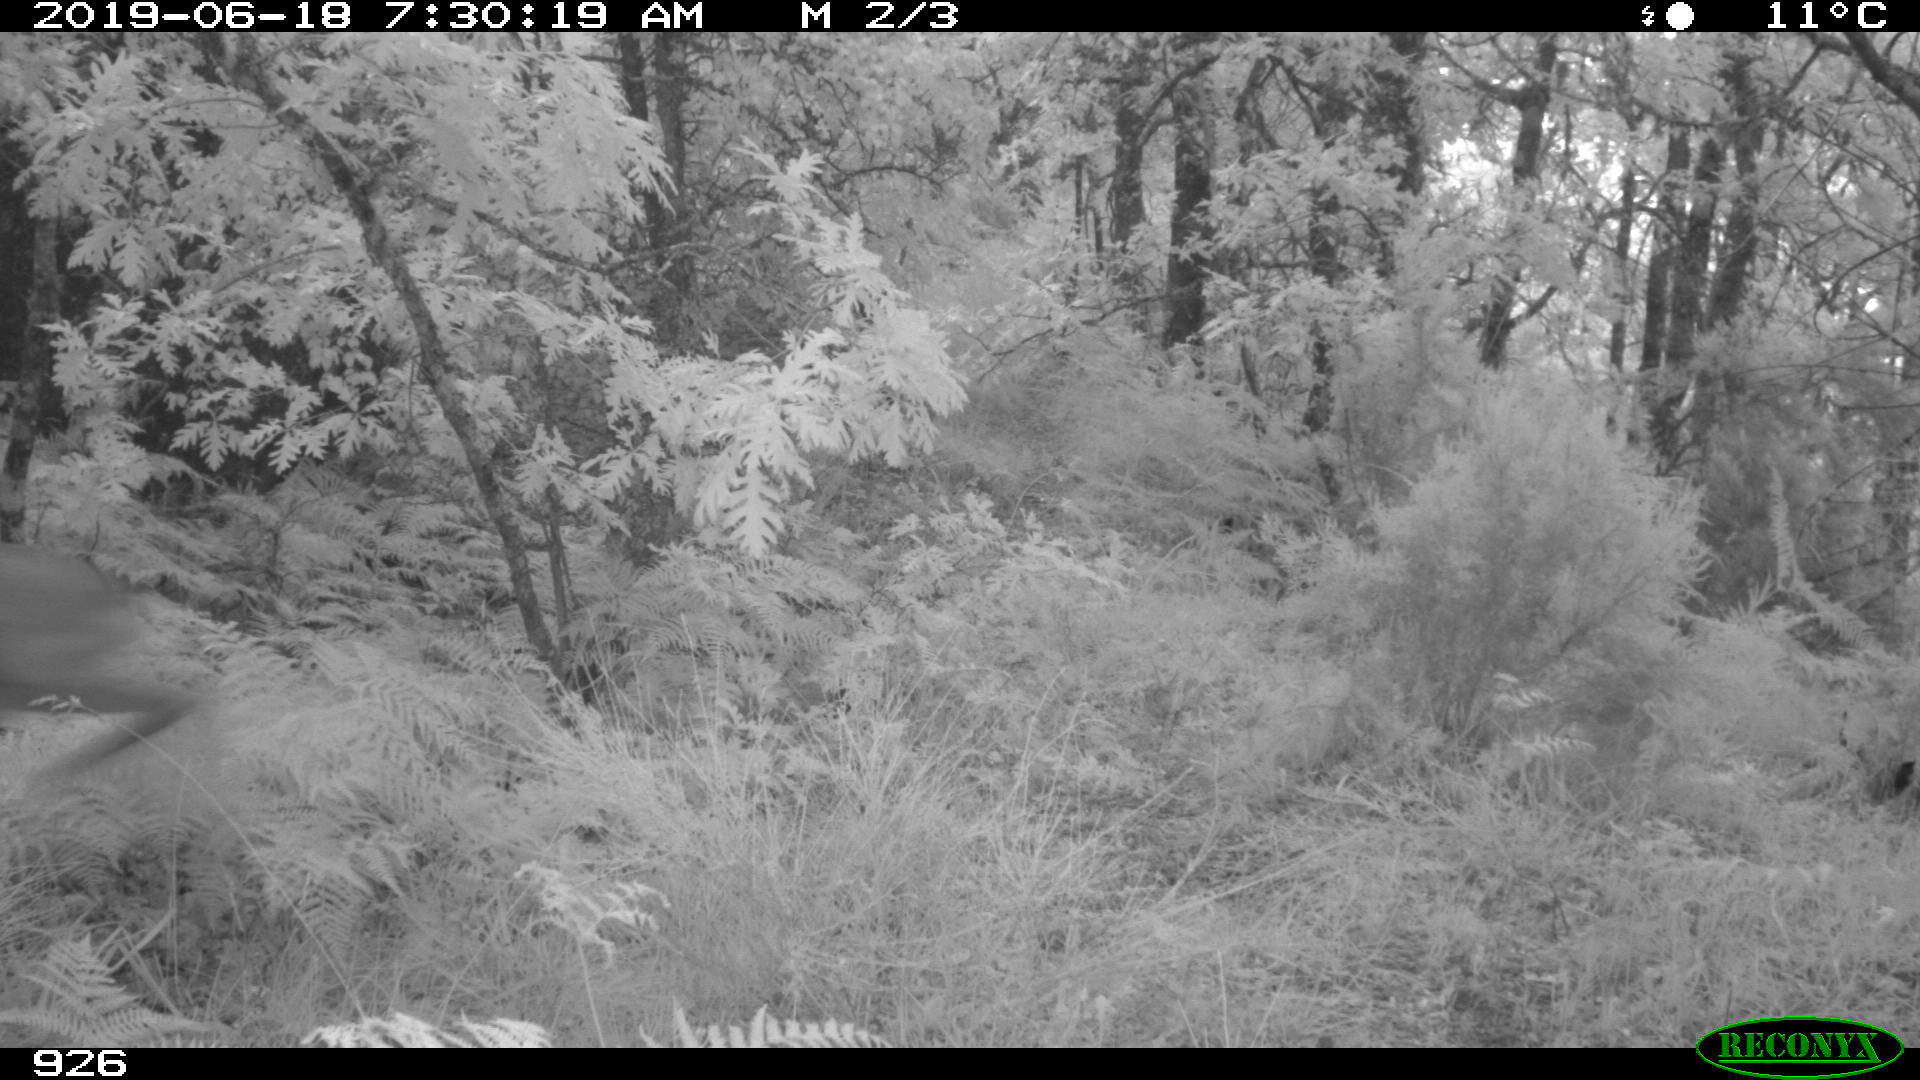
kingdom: Animalia
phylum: Chordata
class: Mammalia
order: Artiodactyla
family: Cervidae
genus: Capreolus
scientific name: Capreolus capreolus
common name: Western roe deer
